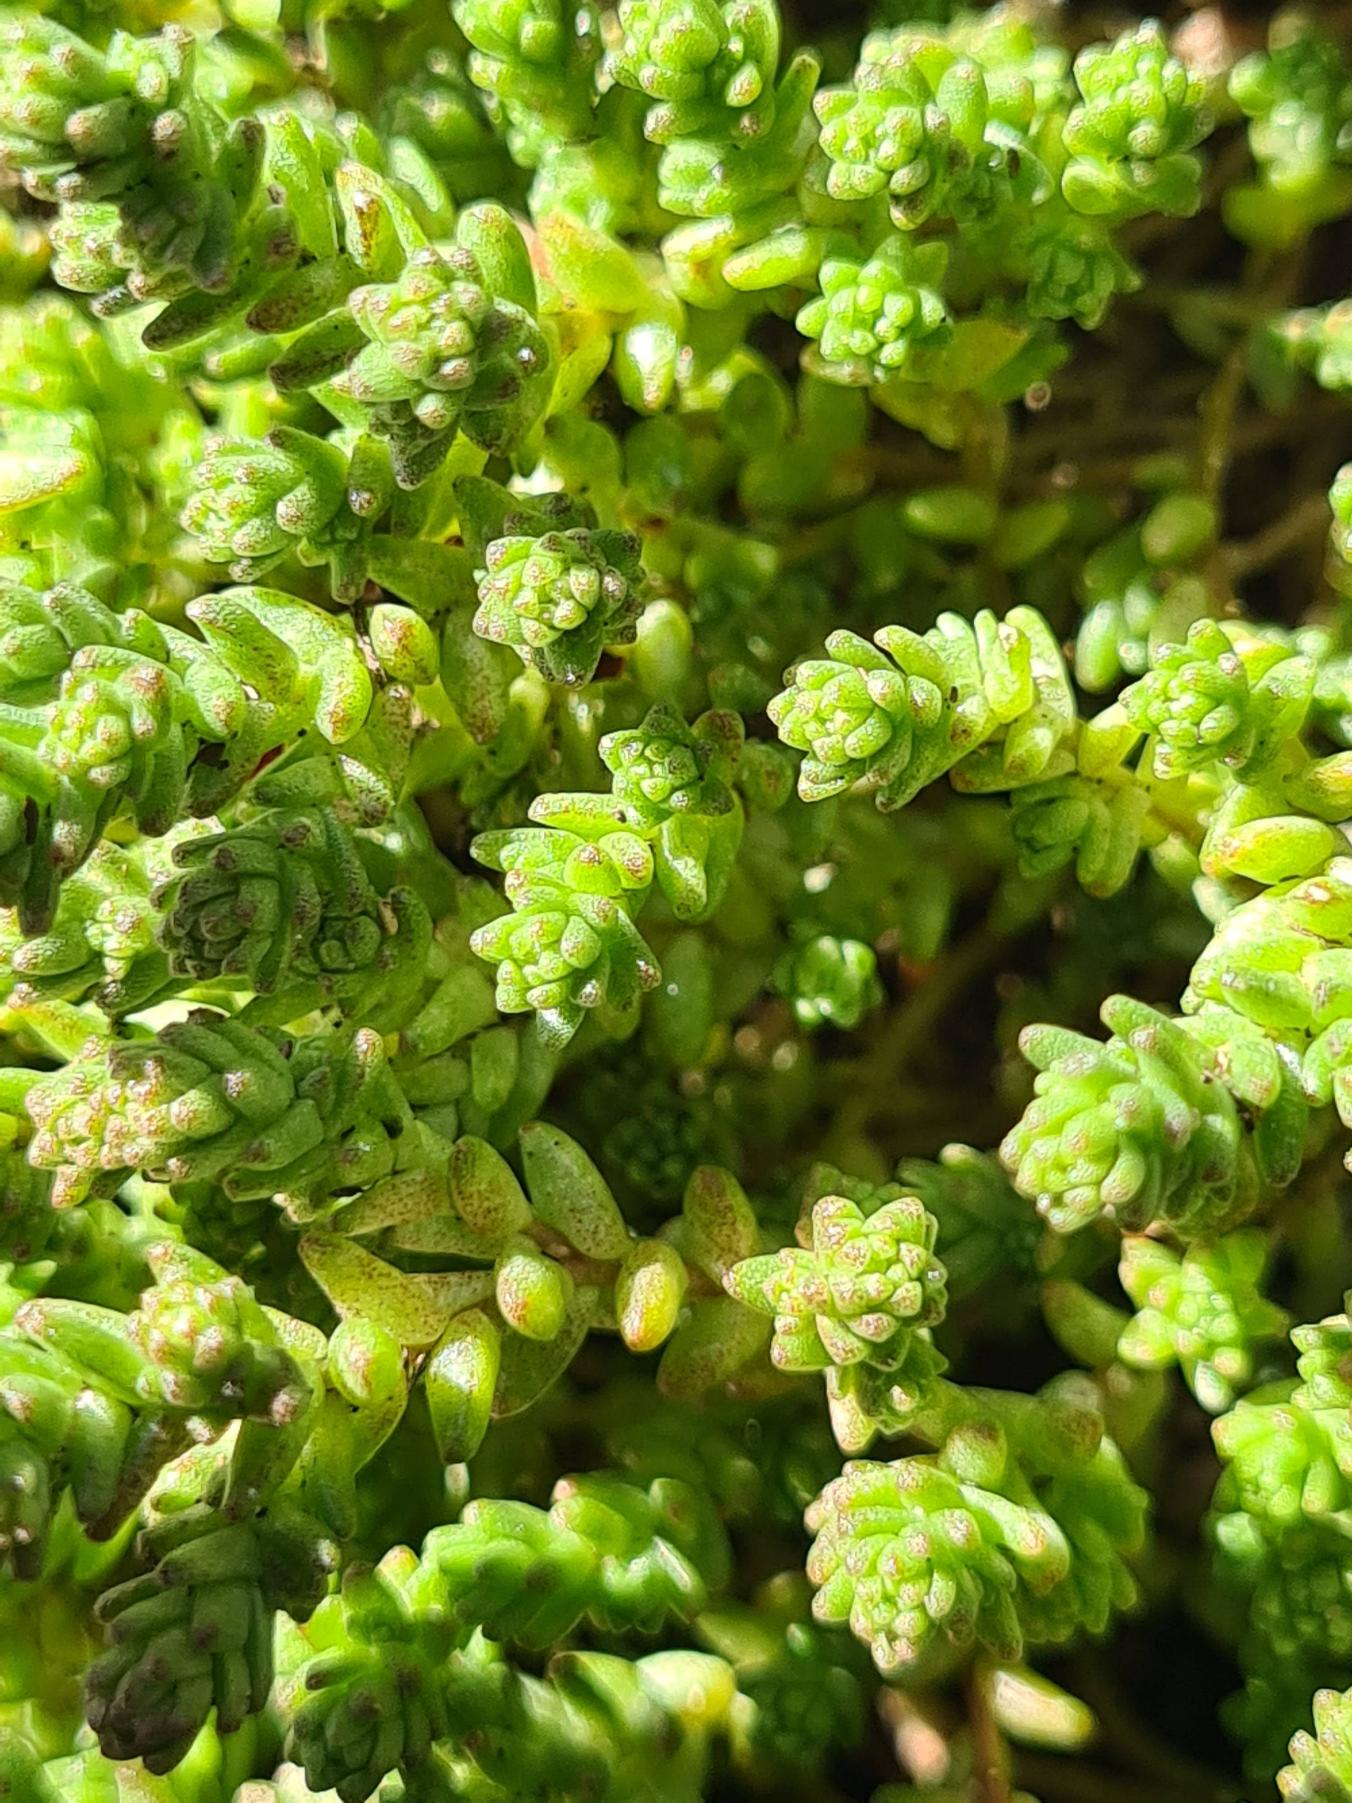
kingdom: Plantae
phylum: Tracheophyta
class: Magnoliopsida
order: Saxifragales
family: Crassulaceae
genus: Sedum
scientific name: Sedum acre
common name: Bidende stenurt
